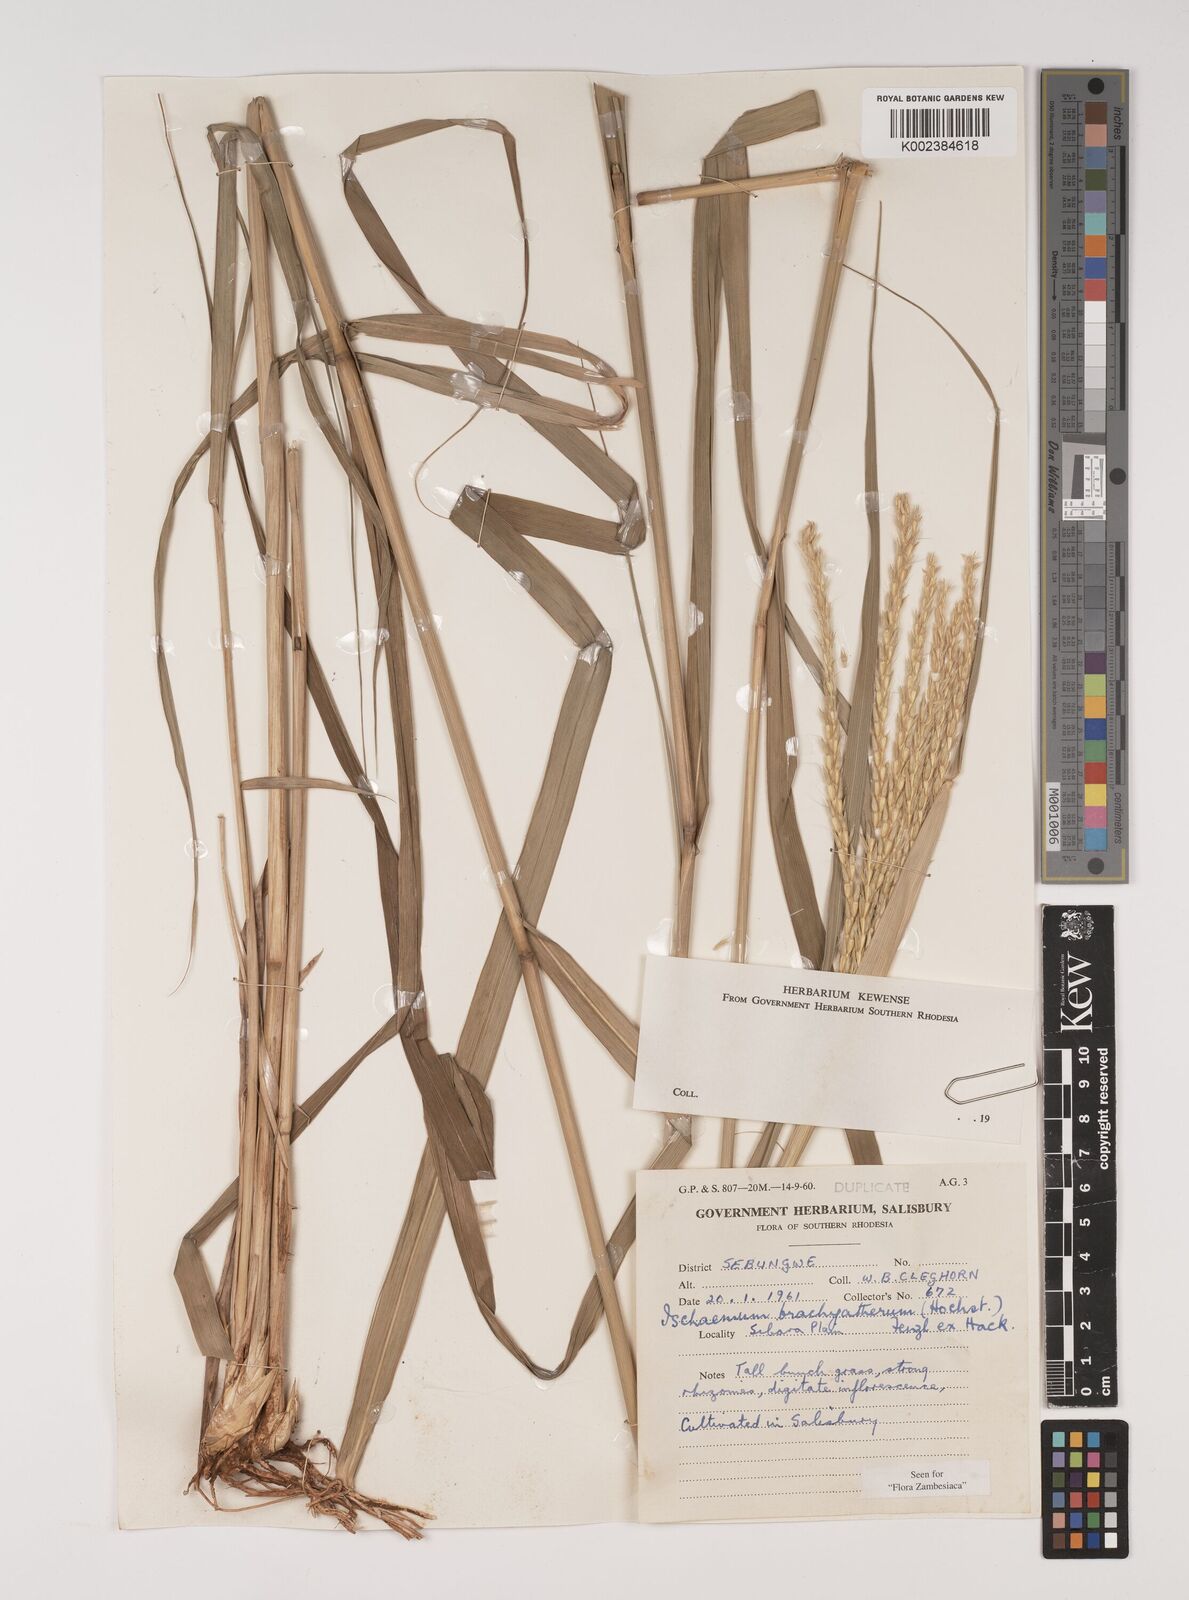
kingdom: Plantae
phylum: Tracheophyta
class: Liliopsida
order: Poales
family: Poaceae
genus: Ischaemum
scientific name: Ischaemum afrum
